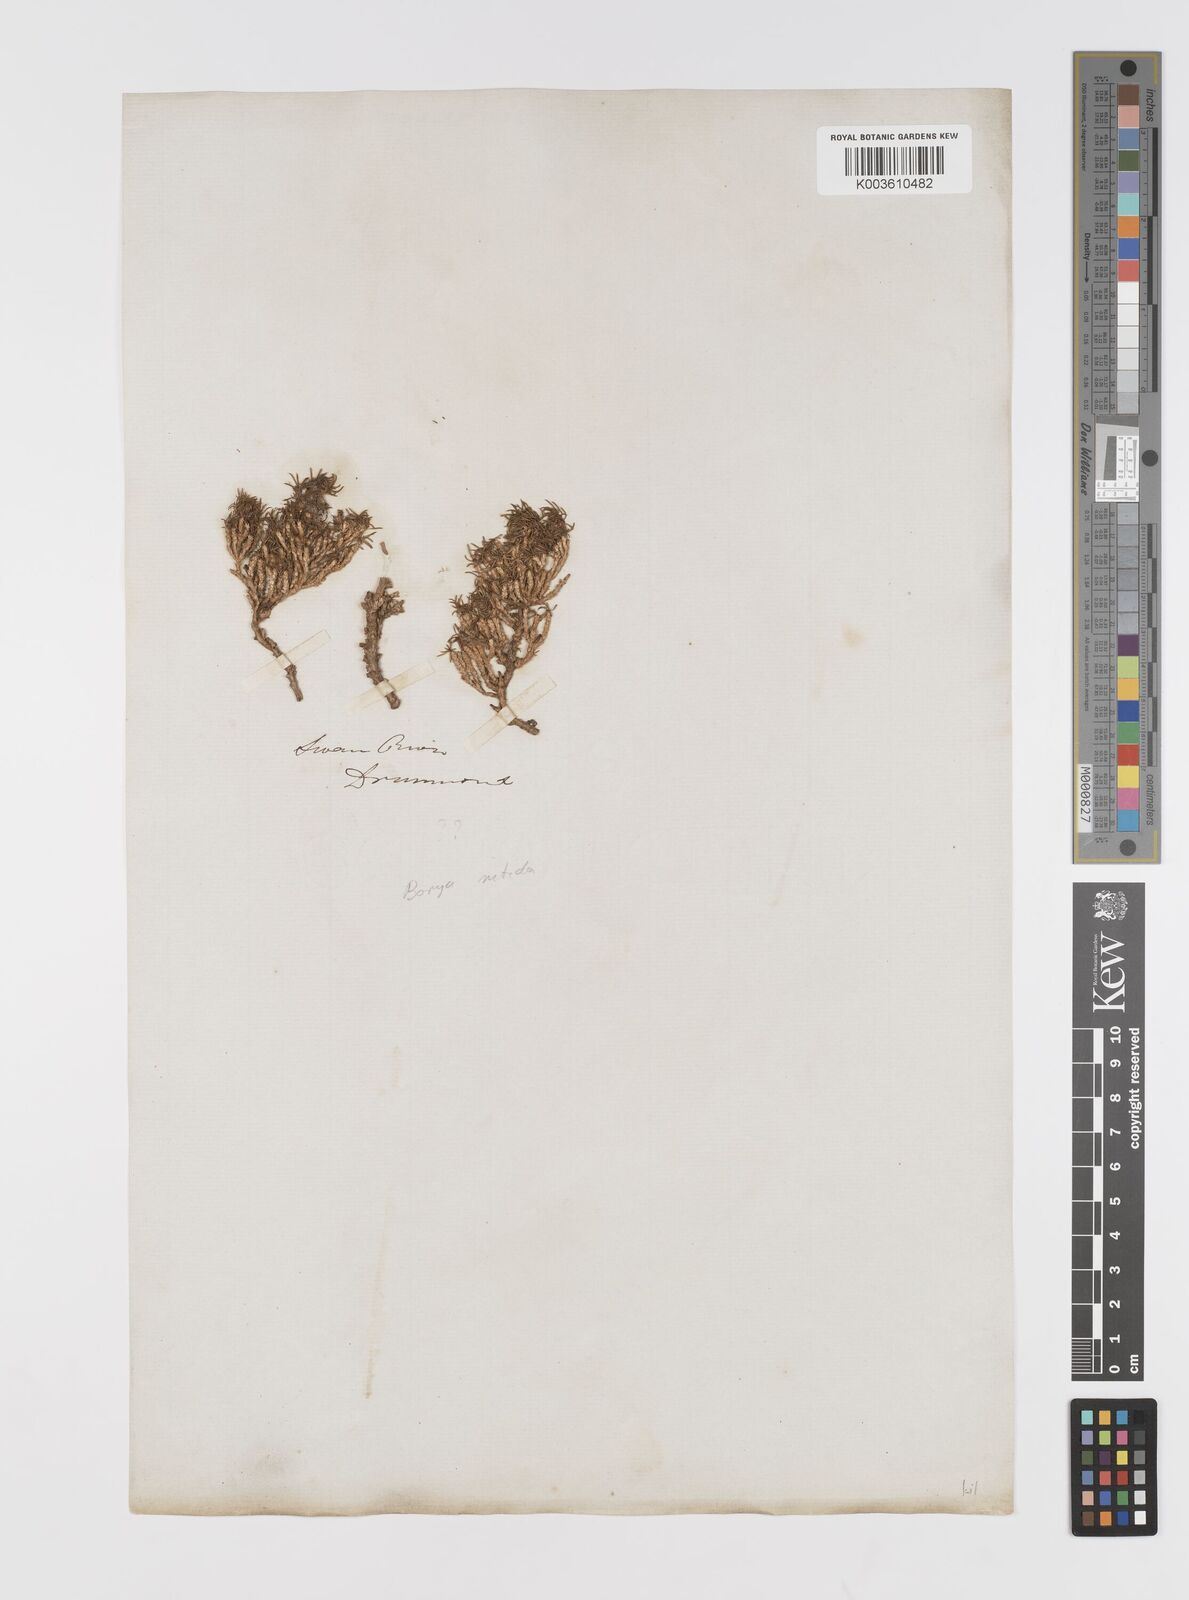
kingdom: Plantae
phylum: Tracheophyta
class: Liliopsida
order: Asparagales
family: Boryaceae
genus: Borya
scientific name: Borya nitida
